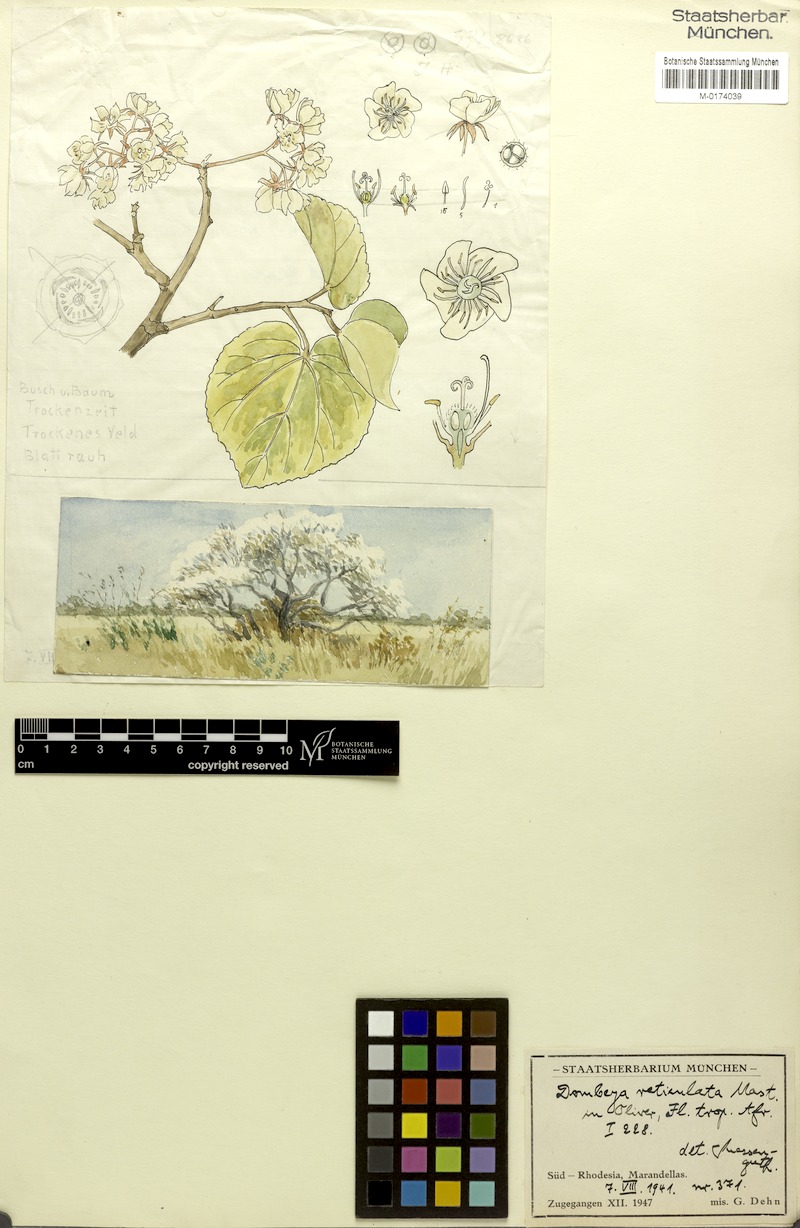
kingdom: Plantae
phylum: Tracheophyta
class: Magnoliopsida
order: Malvales
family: Malvaceae
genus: Dombeya
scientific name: Dombeya quinqueseta
